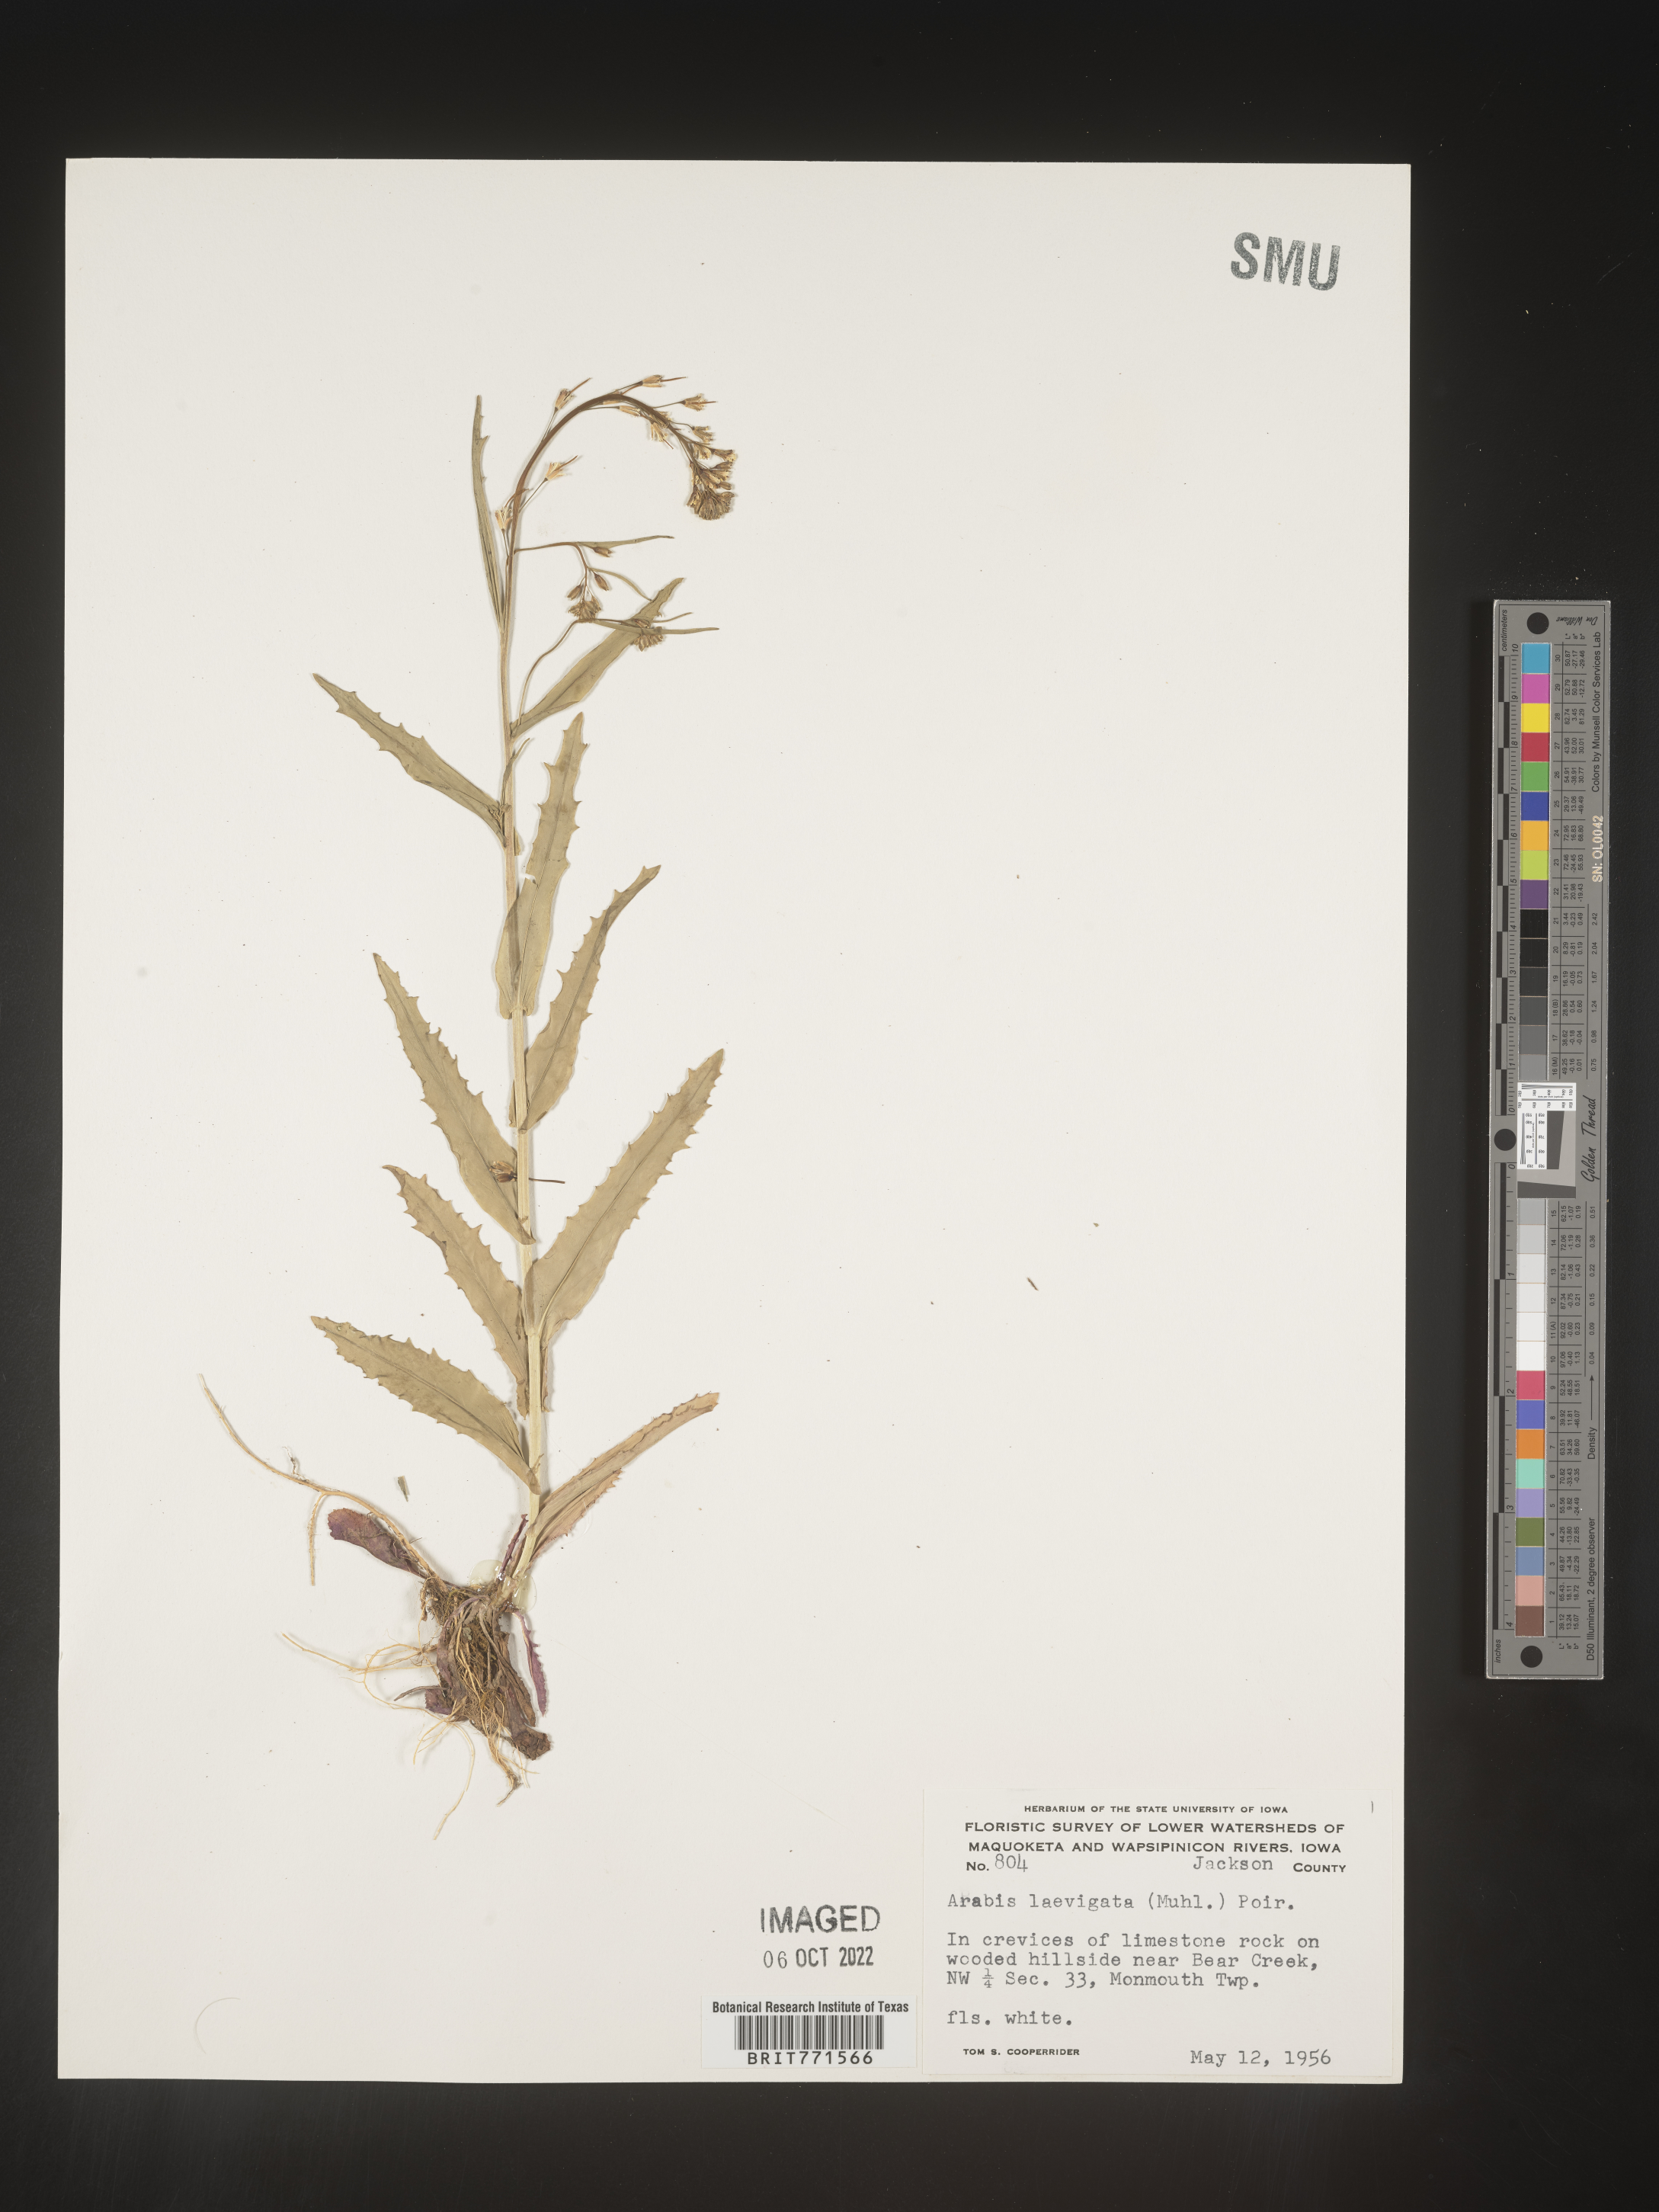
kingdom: Plantae
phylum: Tracheophyta
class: Magnoliopsida
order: Brassicales
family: Brassicaceae
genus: Arabis
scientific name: Arabis laevigata
